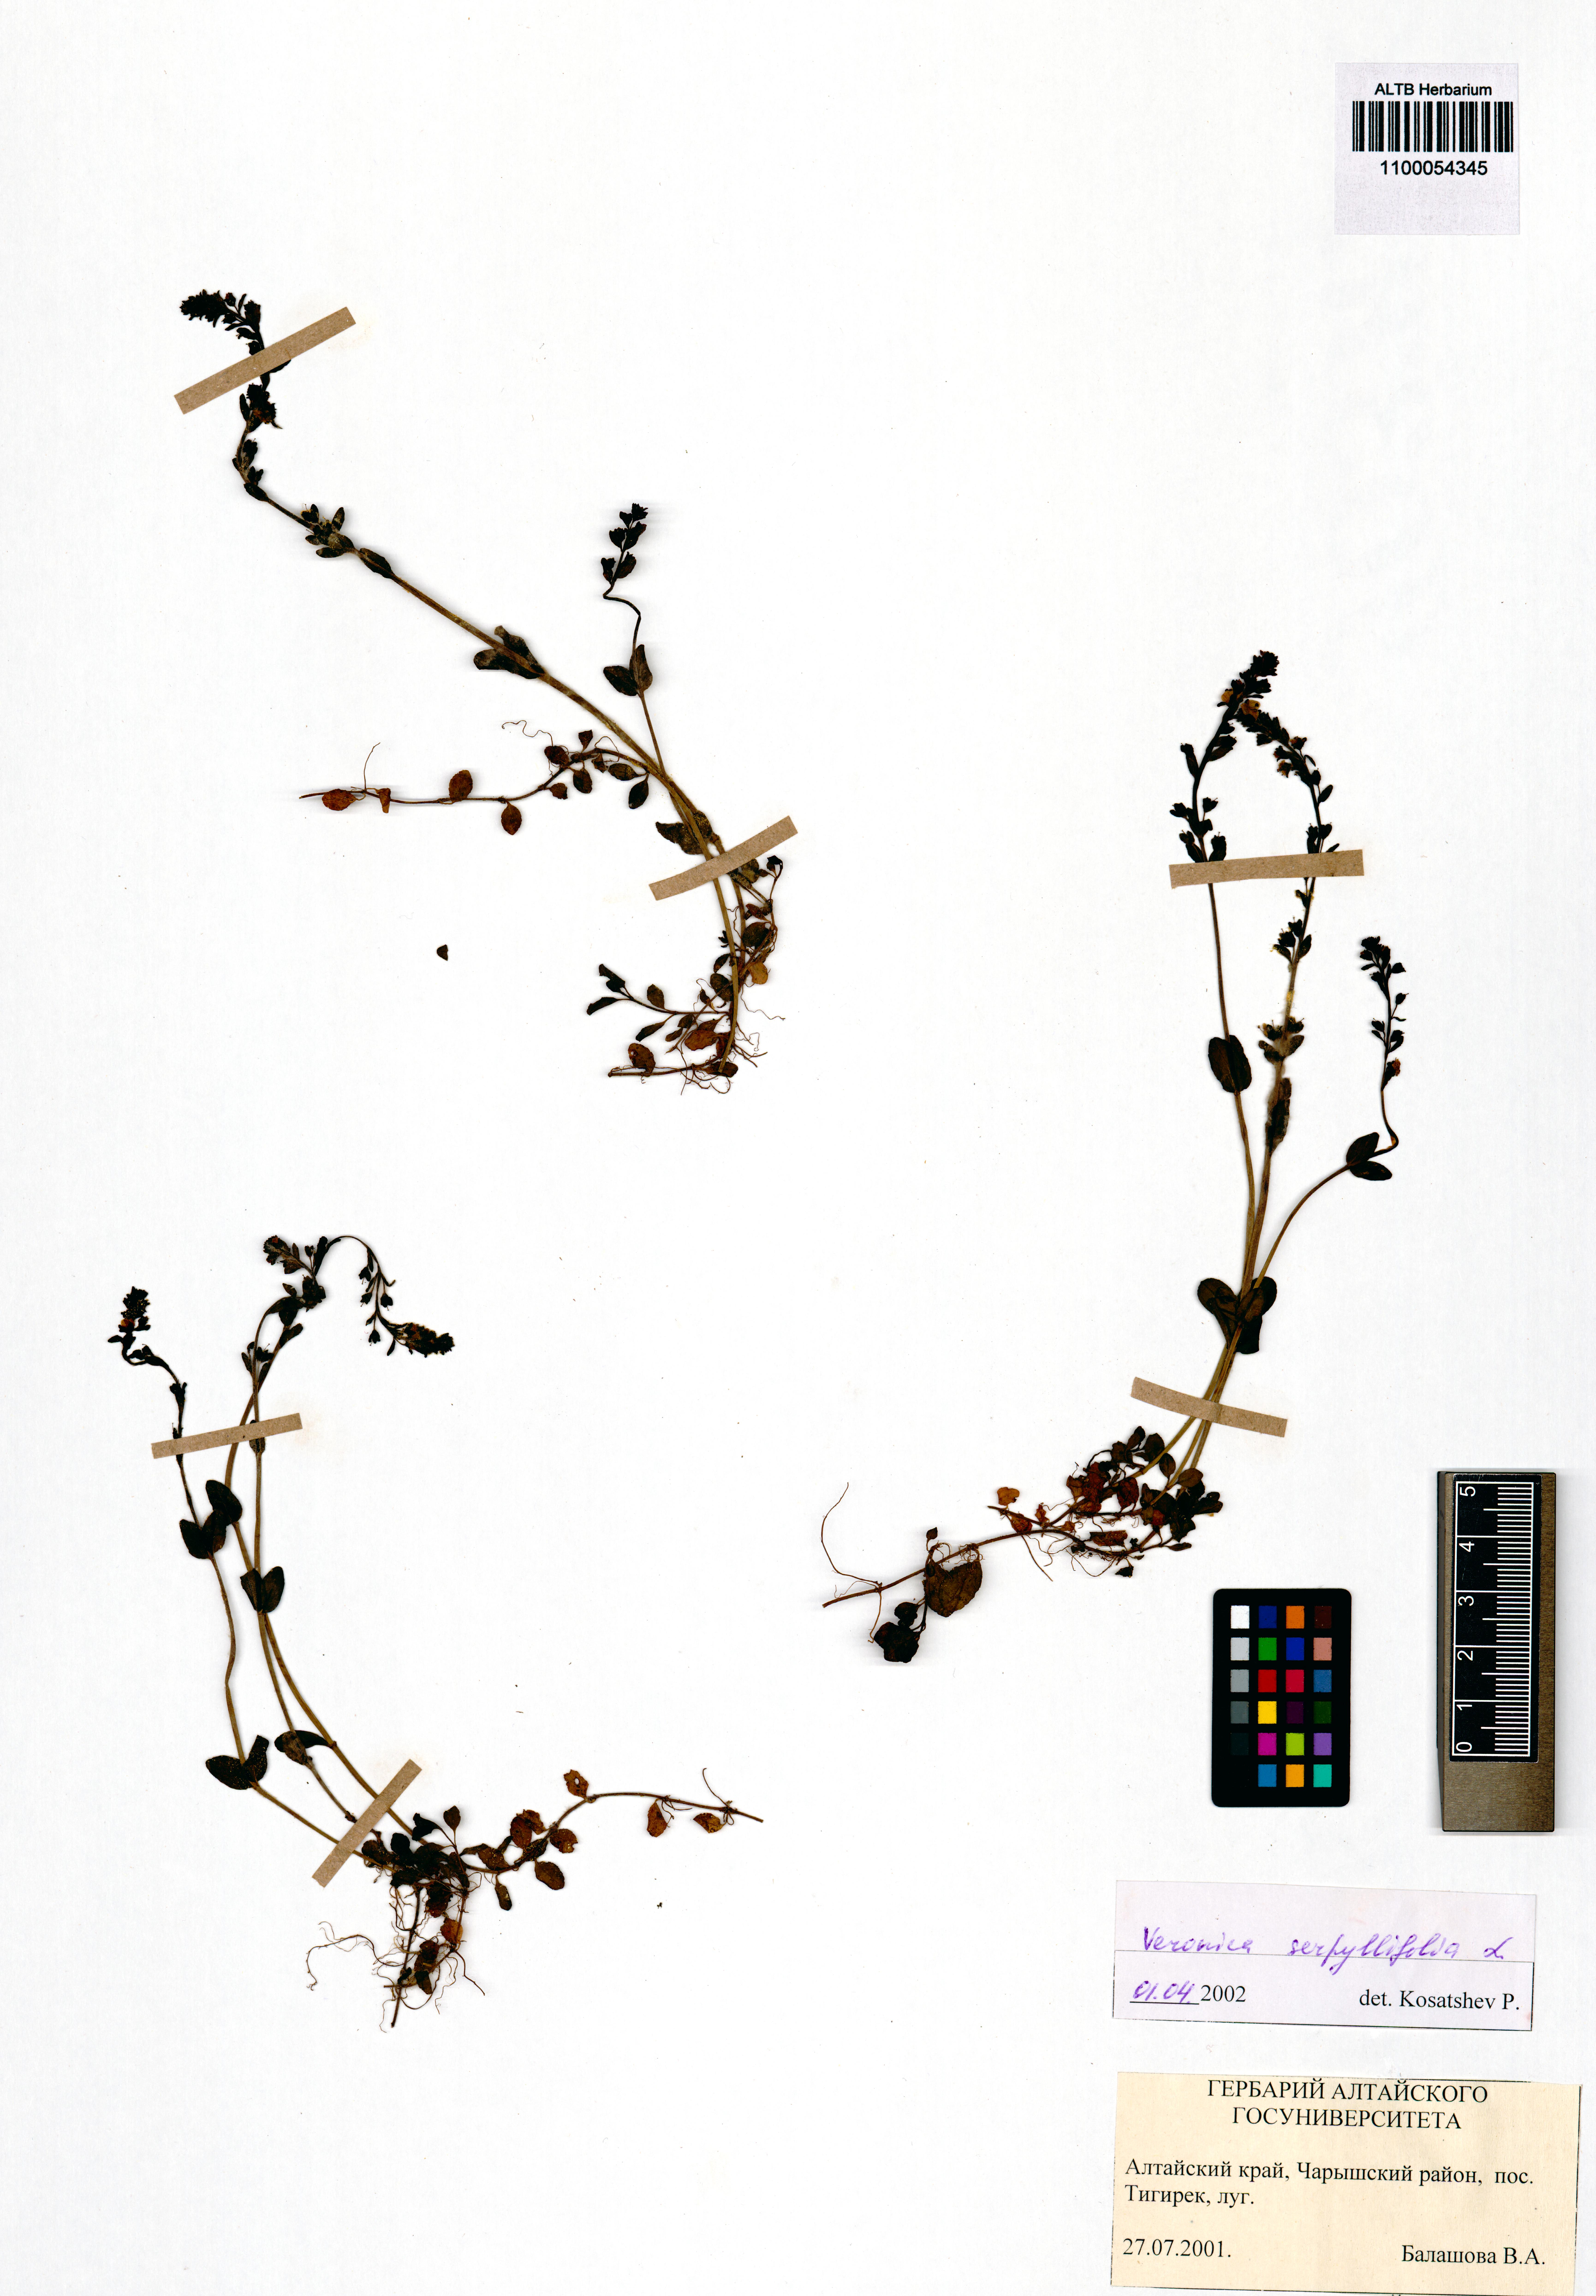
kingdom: Plantae
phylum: Tracheophyta
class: Magnoliopsida
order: Lamiales
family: Plantaginaceae
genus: Veronica
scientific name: Veronica serpyllifolia
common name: Thyme-leaved speedwell
